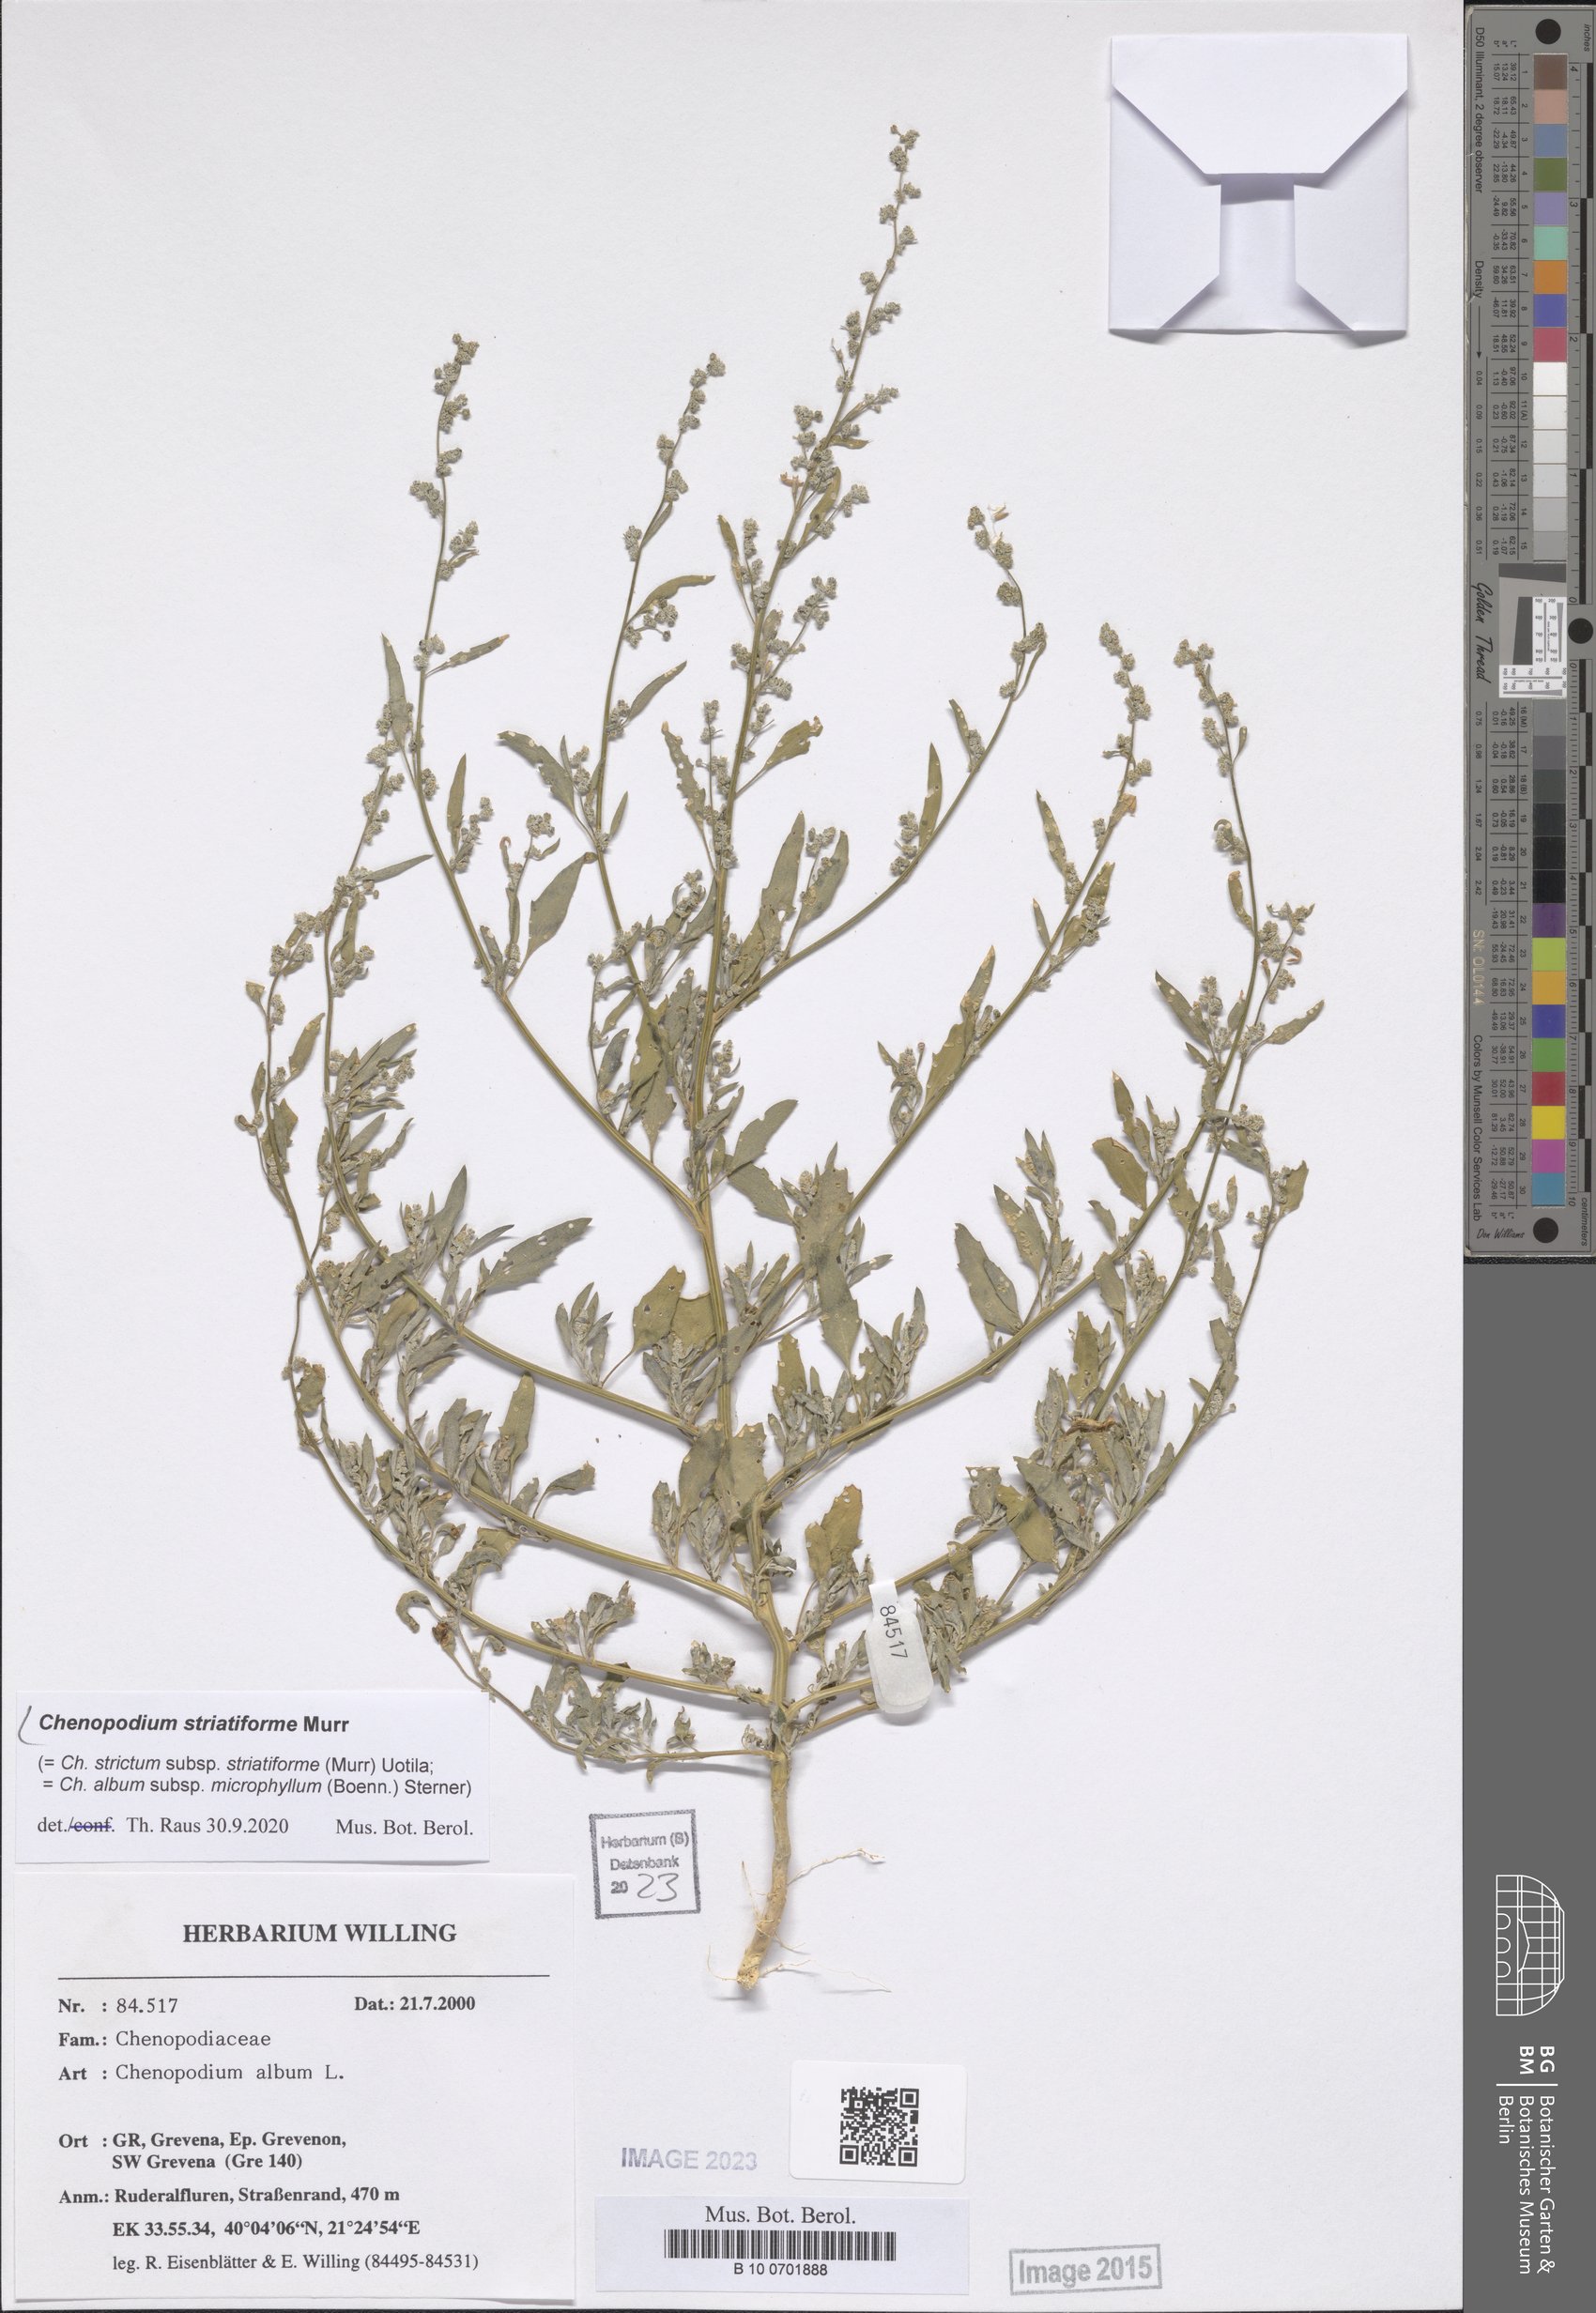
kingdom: Plantae
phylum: Tracheophyta
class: Magnoliopsida
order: Caryophyllales
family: Amaranthaceae
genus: Chenopodium
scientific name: Chenopodium striatiforme
